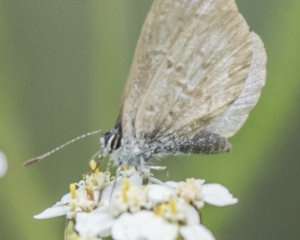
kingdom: Animalia
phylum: Arthropoda
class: Insecta
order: Lepidoptera
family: Lycaenidae
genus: Celastrina
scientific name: Celastrina
